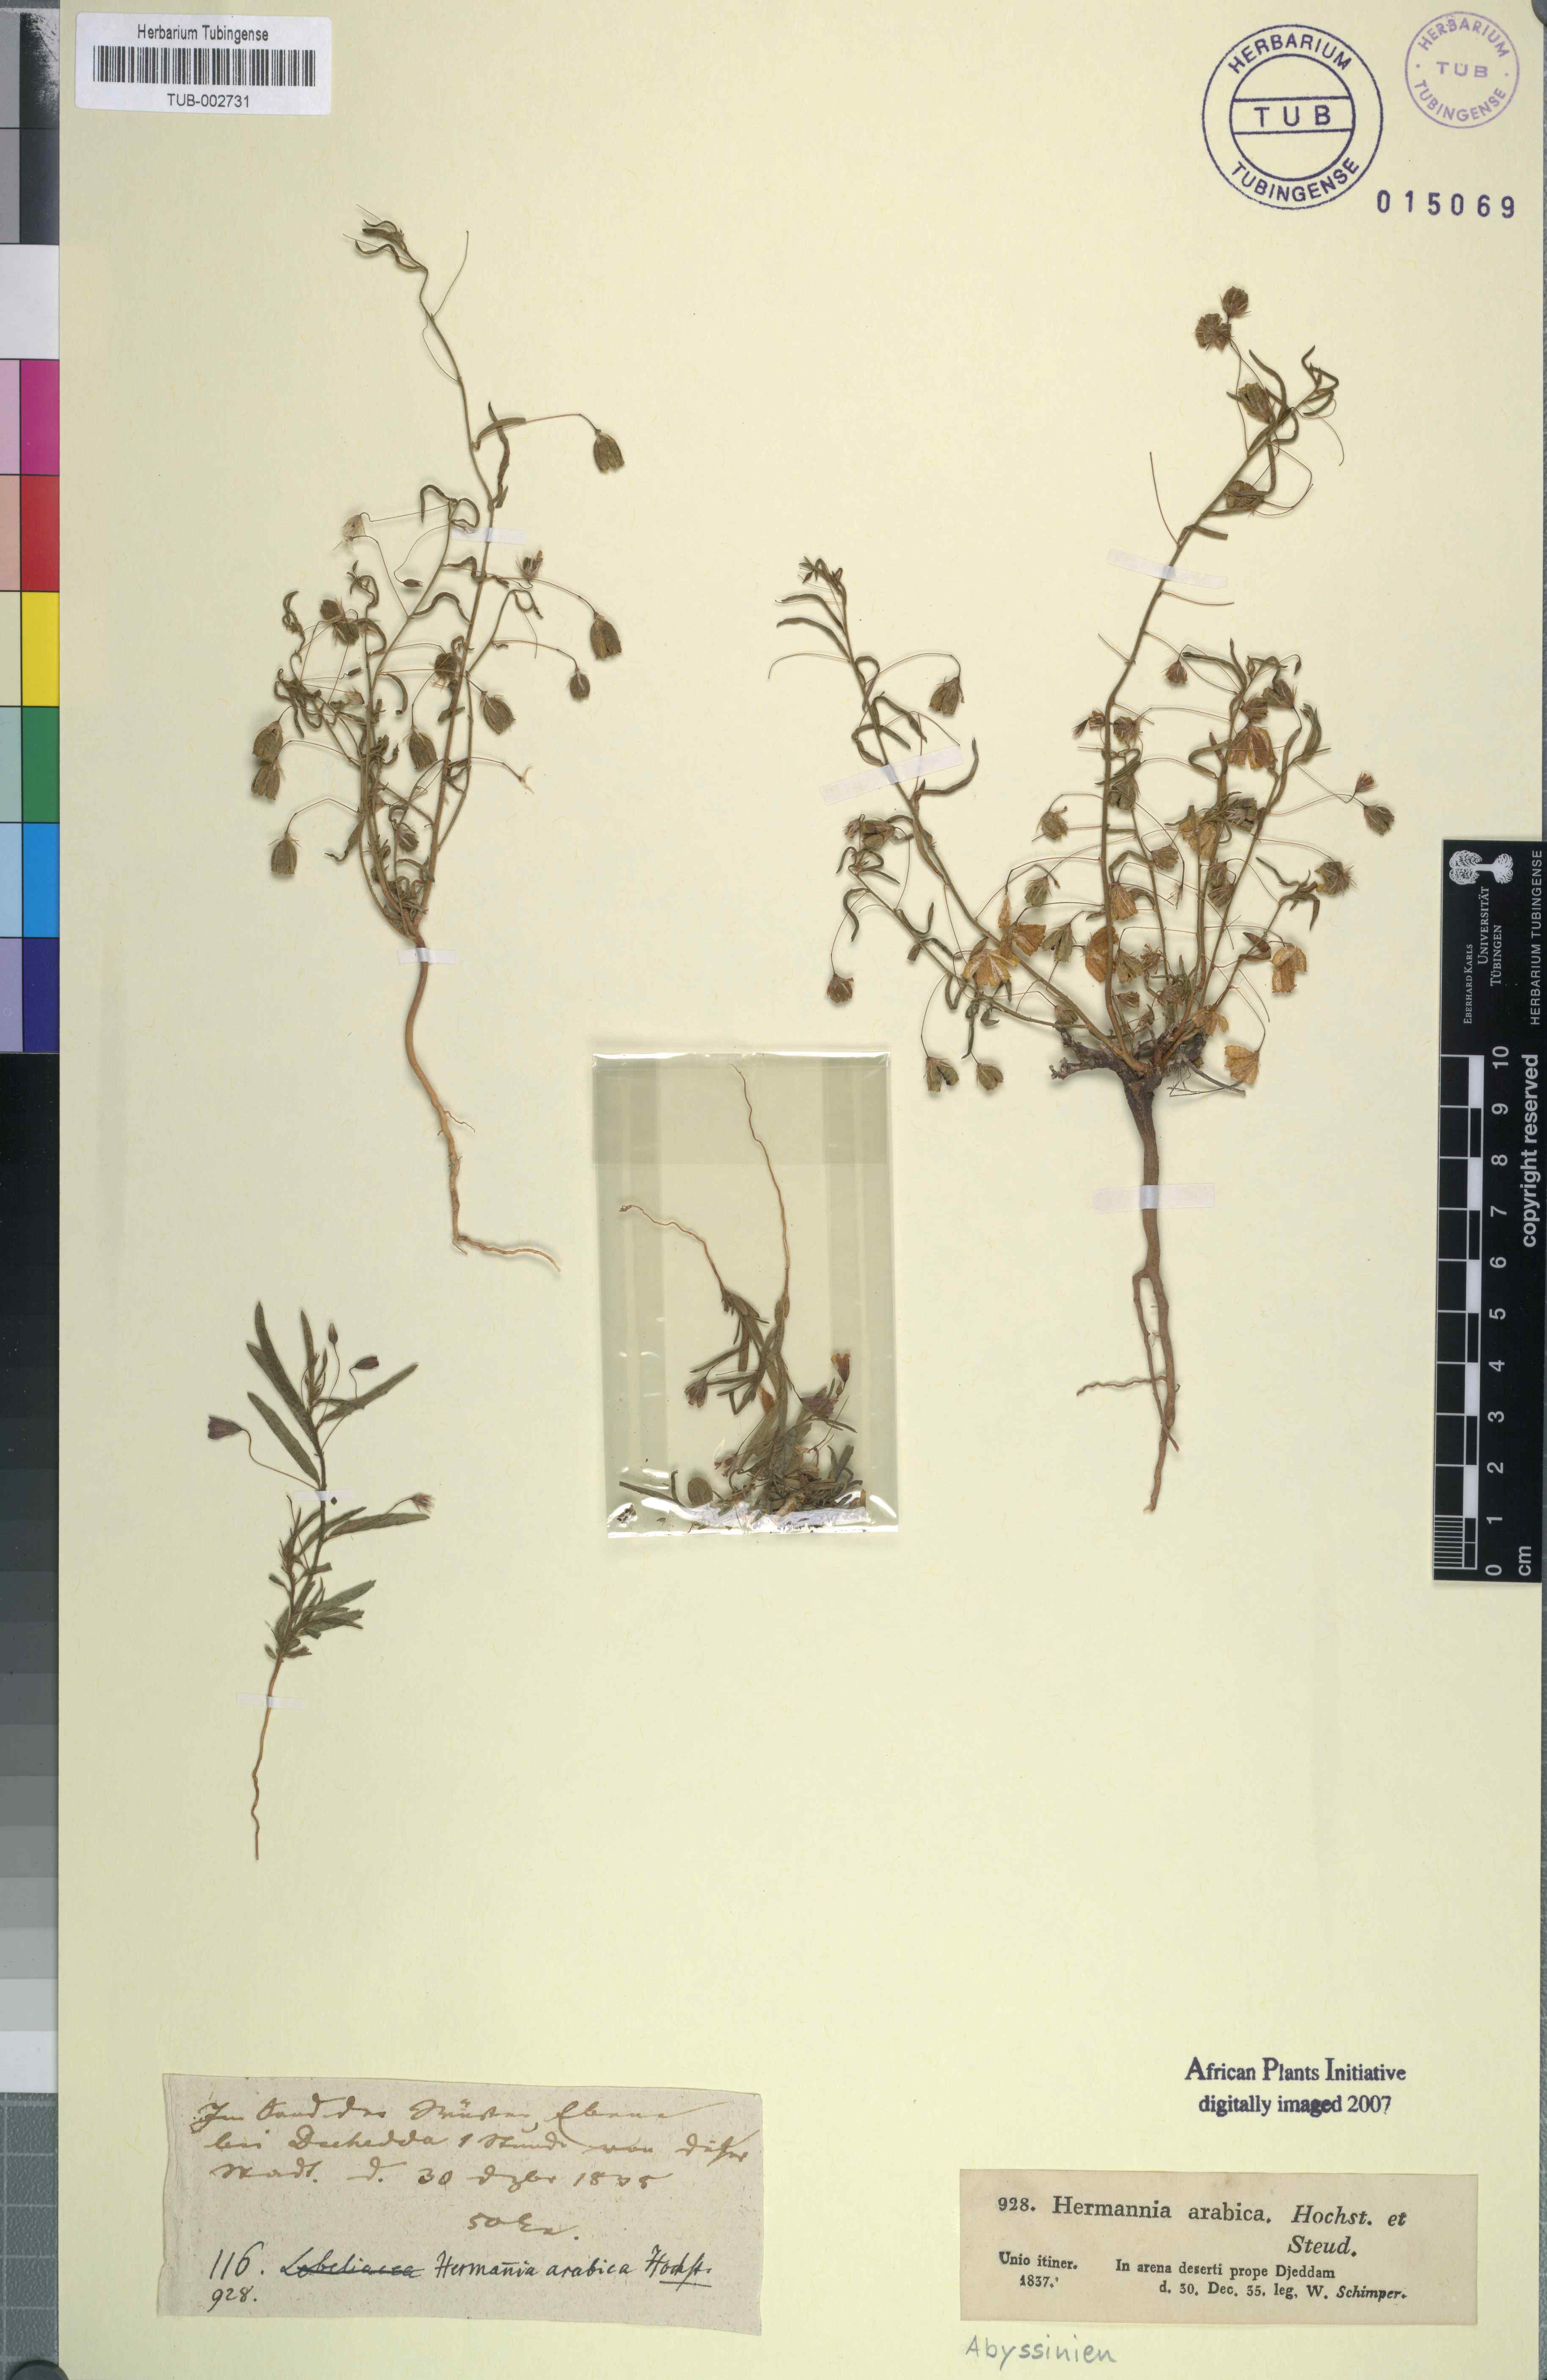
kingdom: Plantae
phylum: Tracheophyta
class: Magnoliopsida
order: Malvales
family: Malvaceae
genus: Hermannia
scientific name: Hermannia modesta
